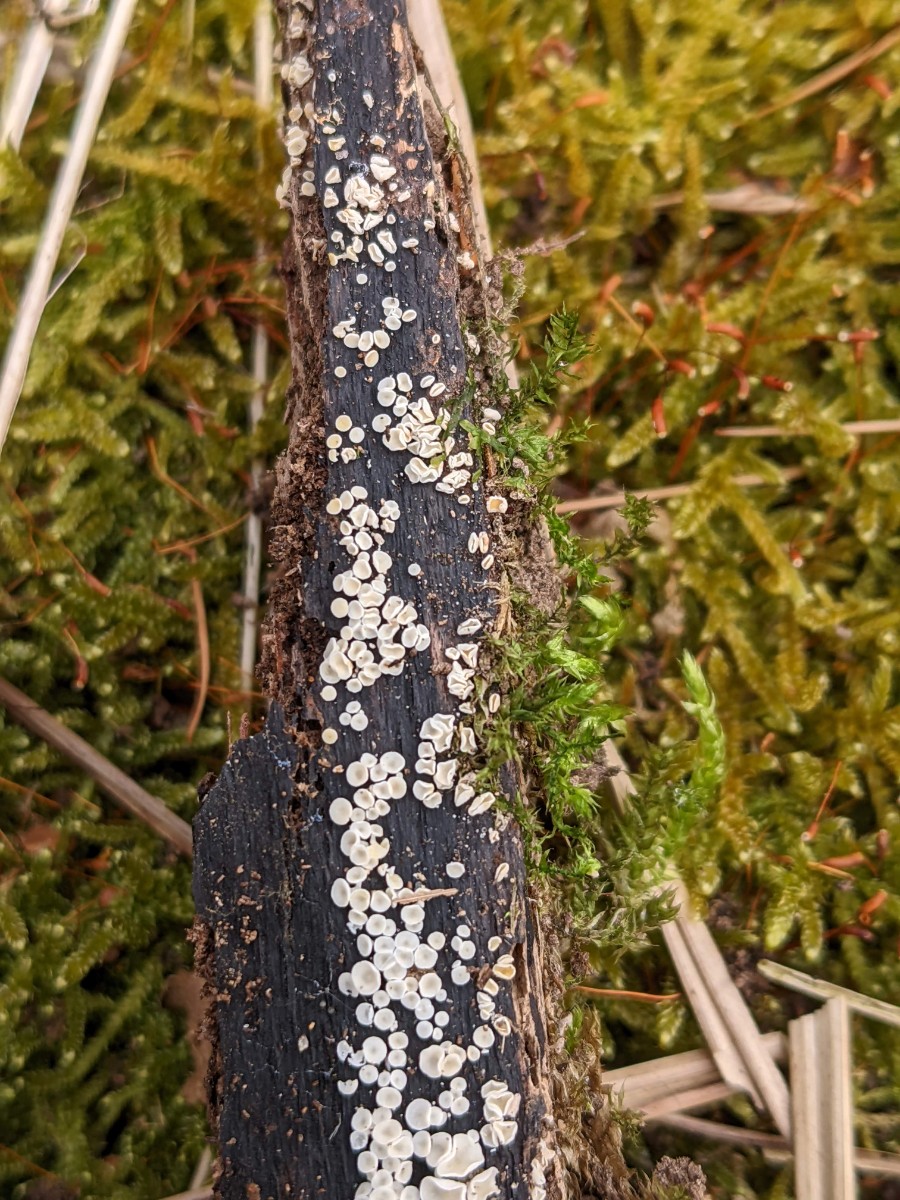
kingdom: Fungi
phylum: Ascomycota
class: Leotiomycetes
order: Helotiales
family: Lachnaceae
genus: Lachnum
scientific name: Lachnum impudicum
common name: vinter-frynseskive
